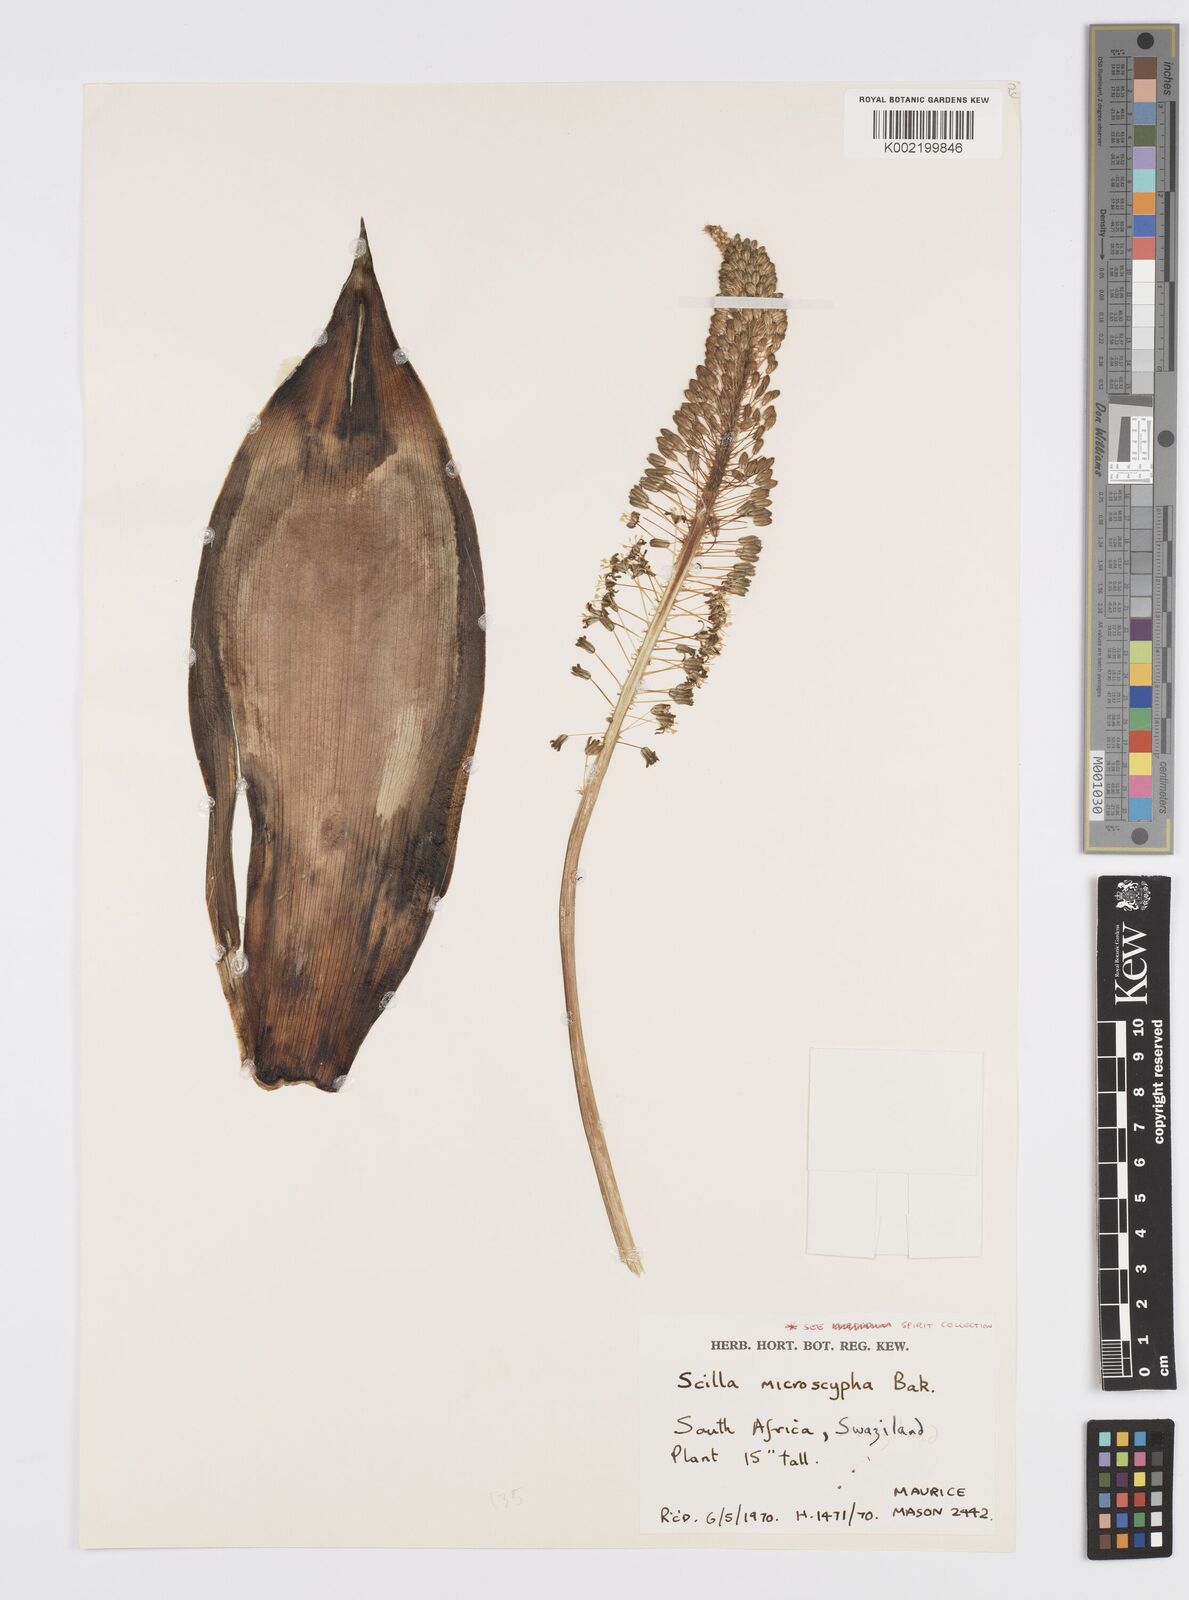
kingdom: Plantae
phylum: Tracheophyta
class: Liliopsida
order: Asparagales
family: Asparagaceae
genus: Ledebouria
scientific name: Ledebouria
